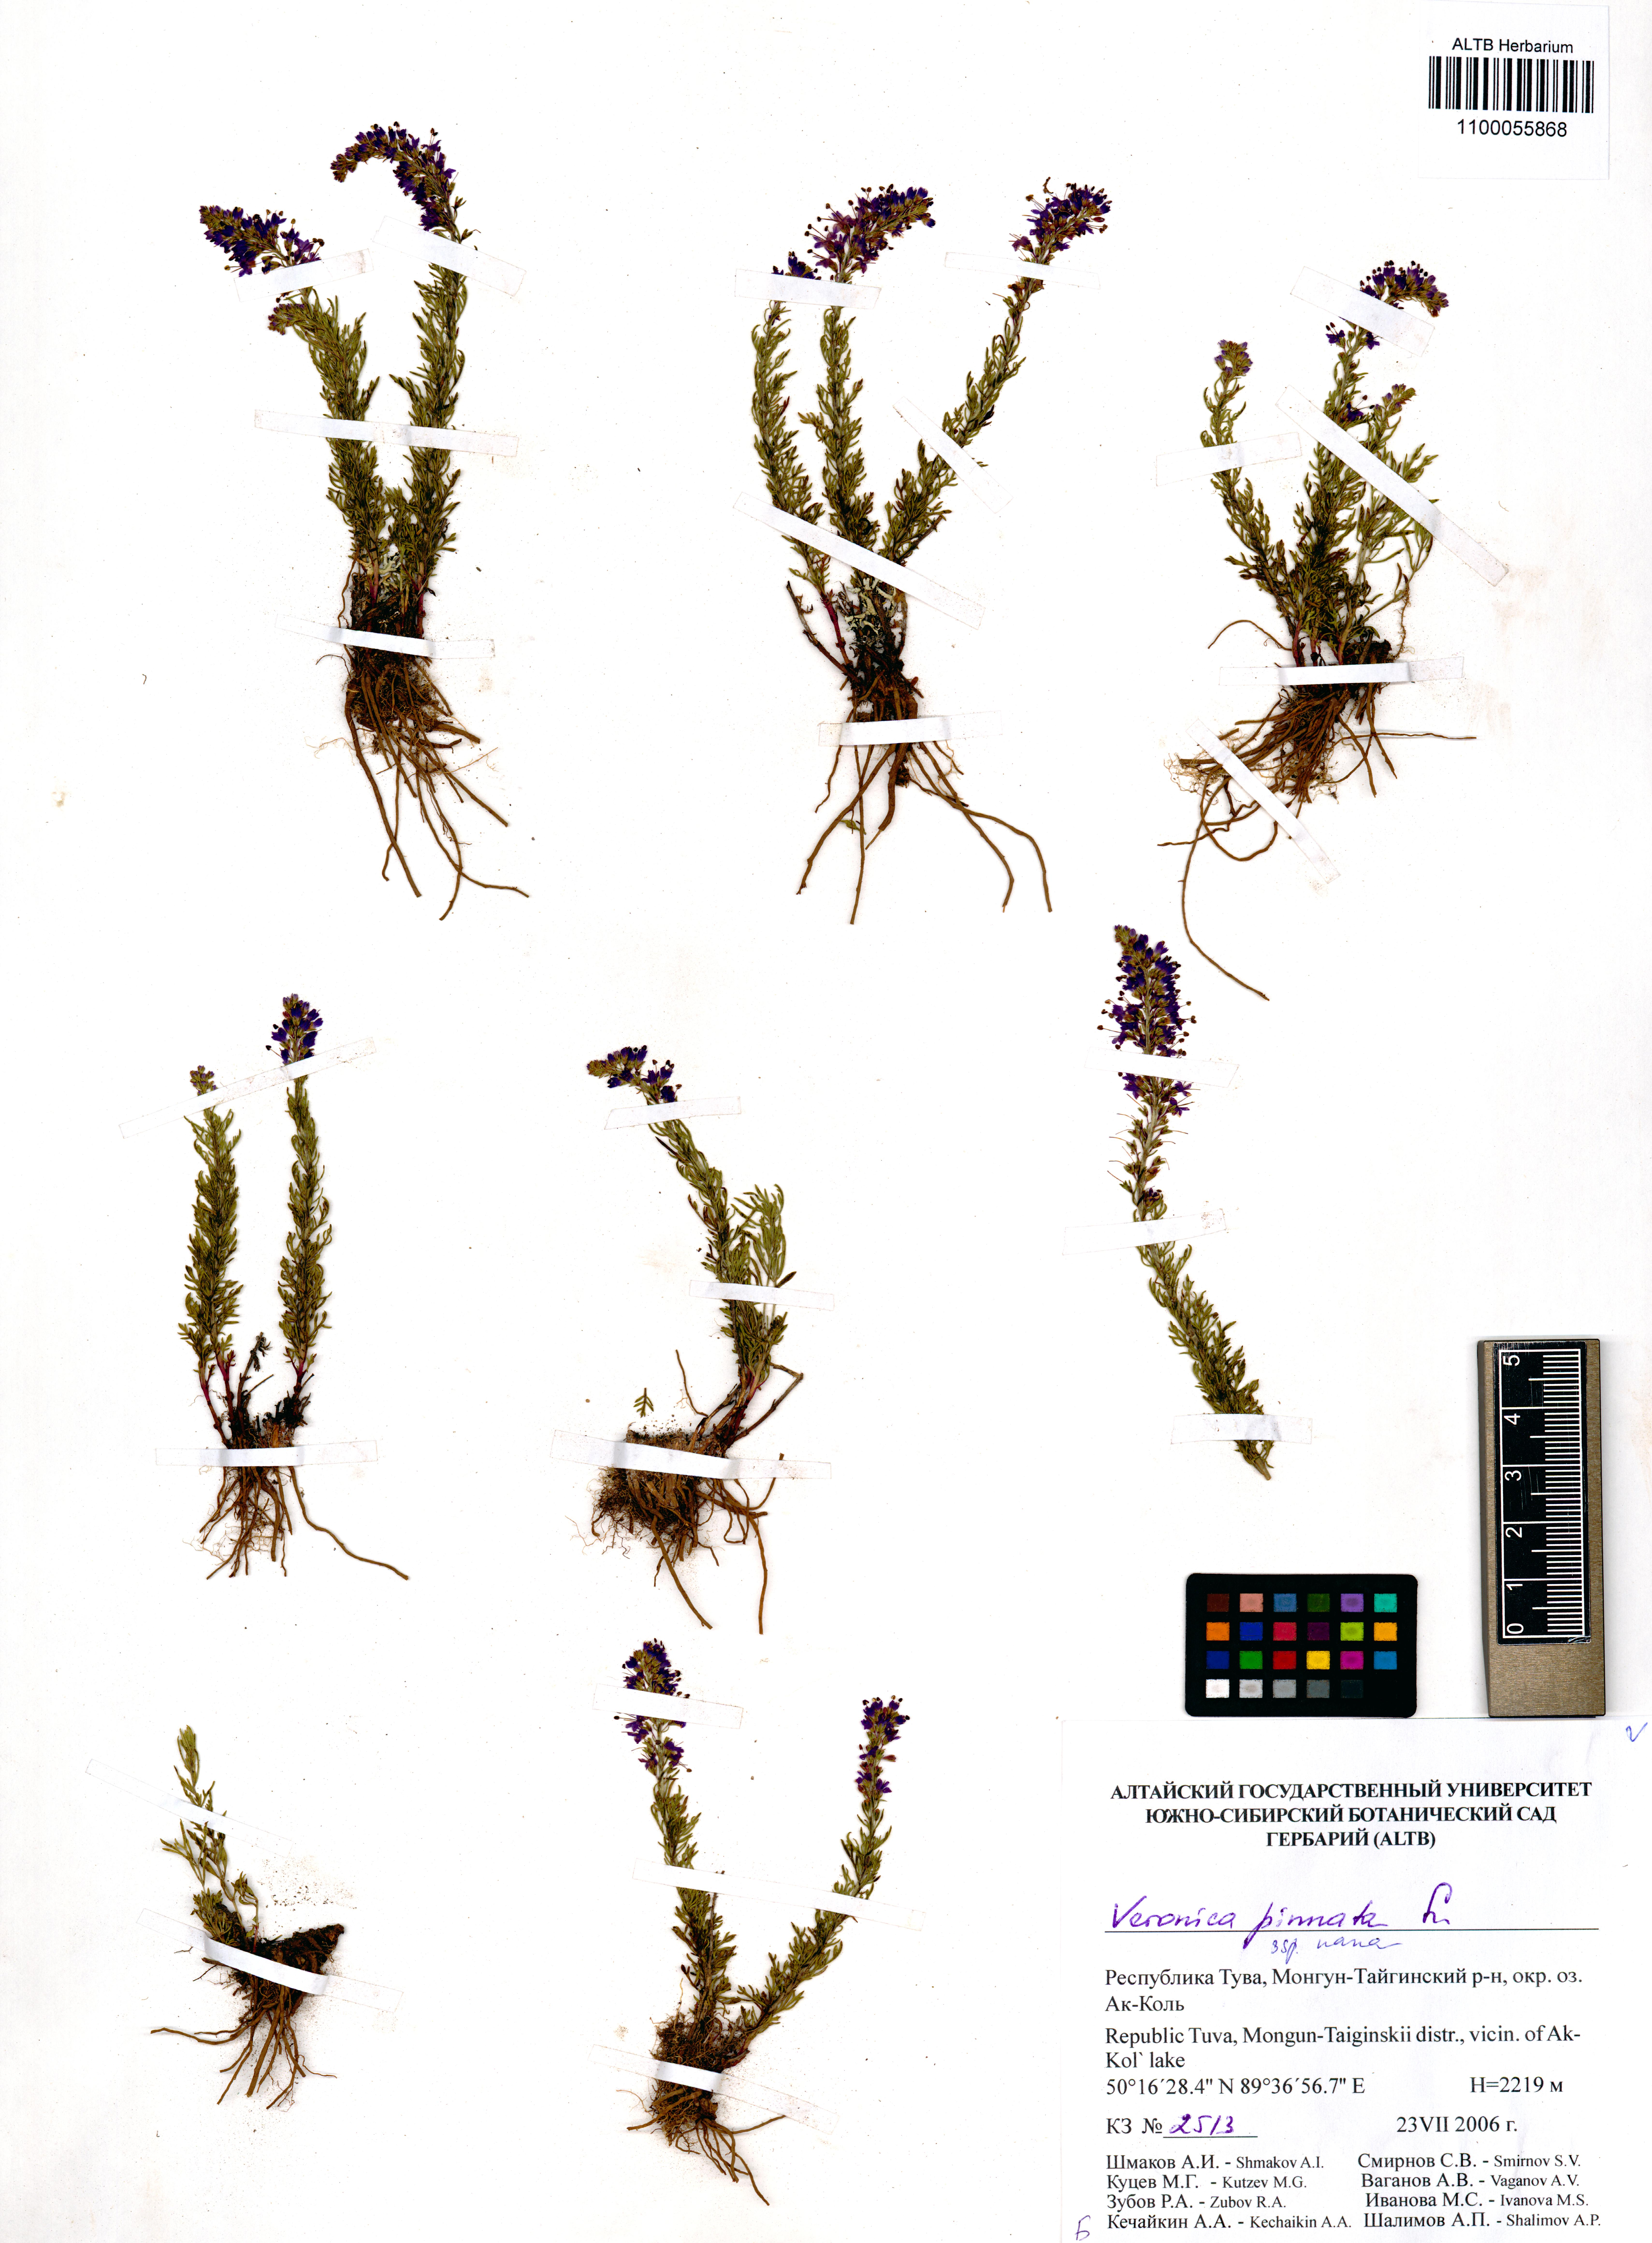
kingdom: Plantae
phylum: Tracheophyta
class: Magnoliopsida
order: Lamiales
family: Plantaginaceae
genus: Veronica
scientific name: Veronica pinnata
